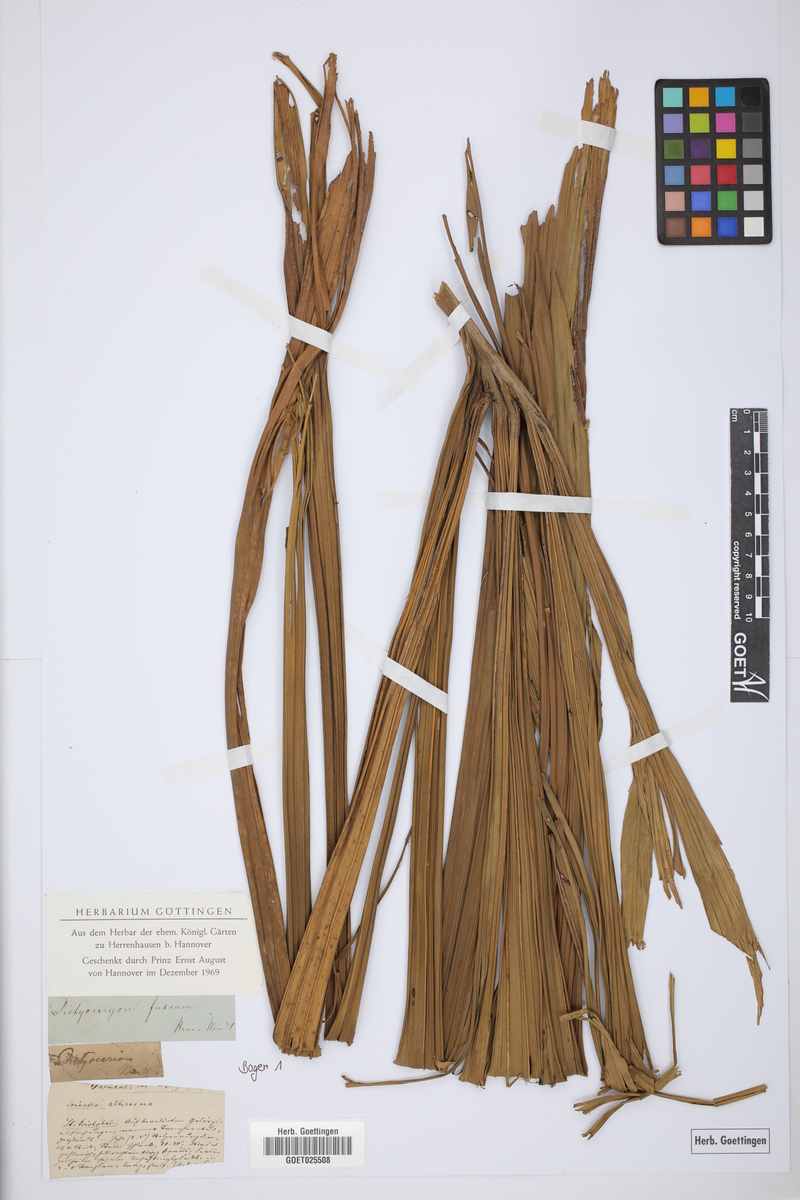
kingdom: Plantae
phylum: Tracheophyta
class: Liliopsida
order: Arecales
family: Arecaceae
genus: Dictyocaryum
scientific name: Dictyocaryum fuscum
